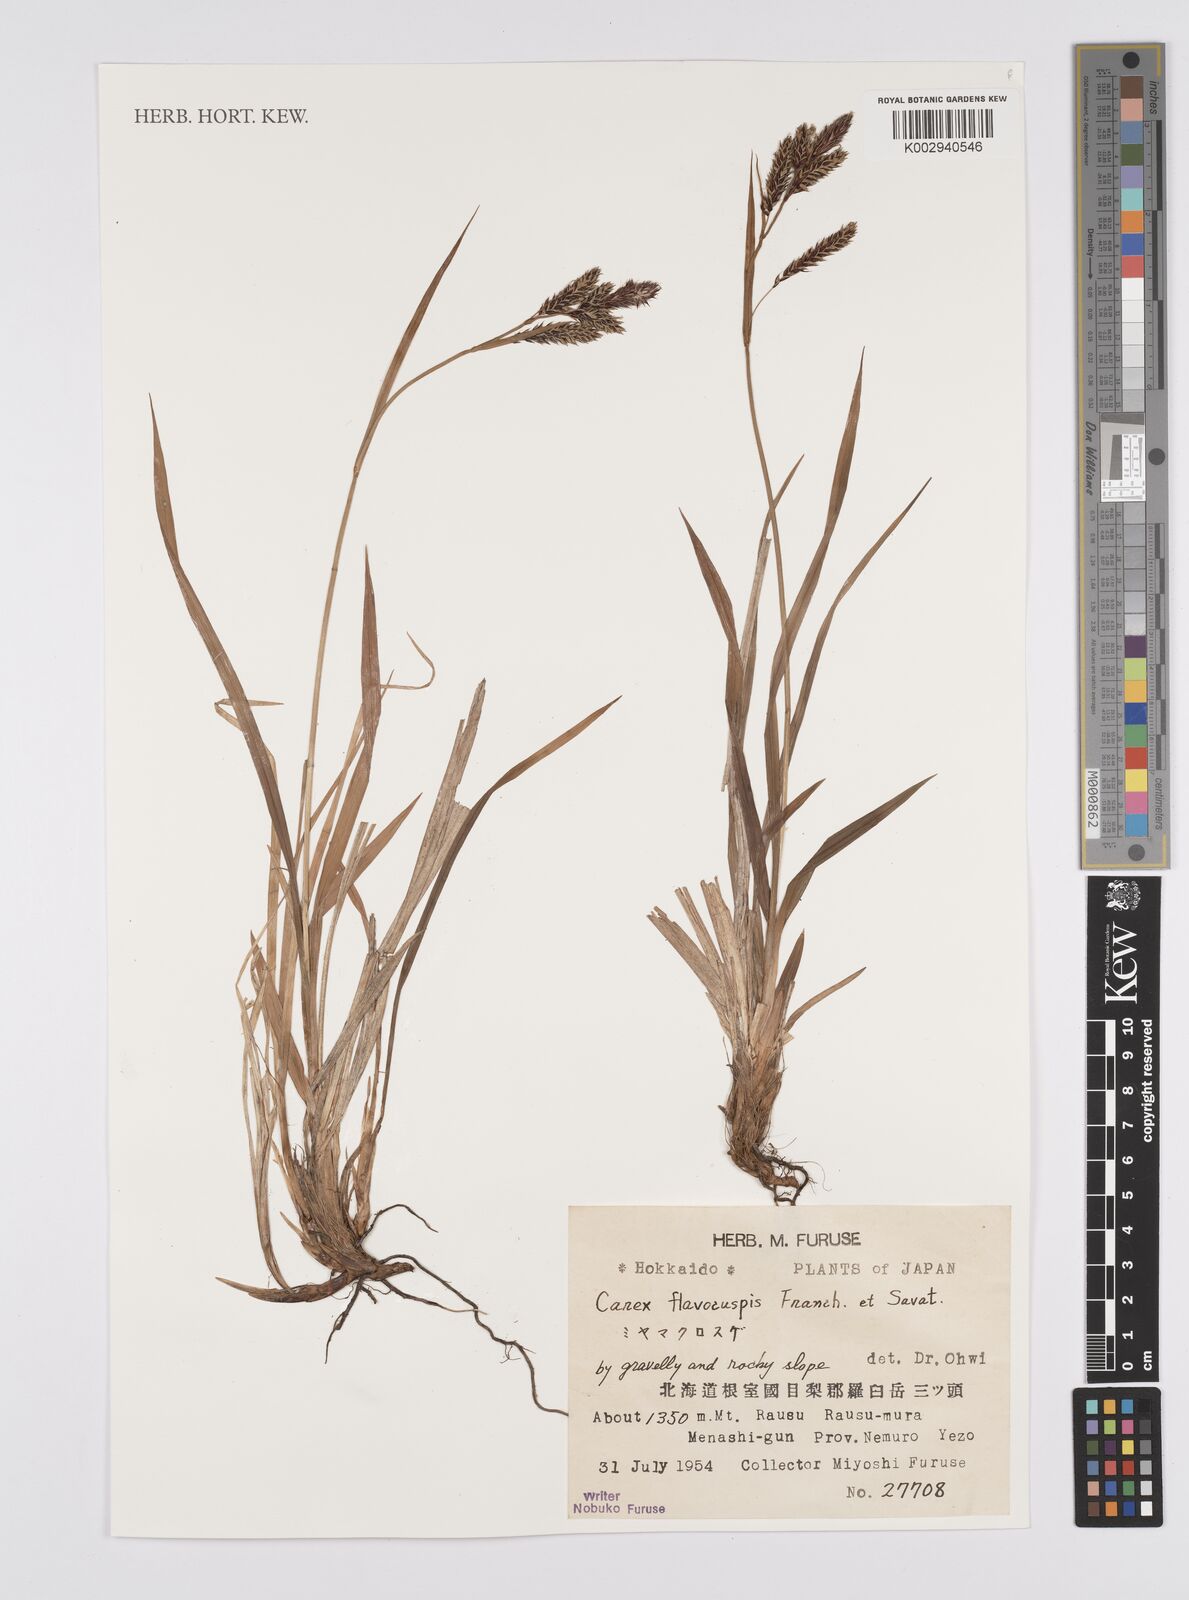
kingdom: Plantae
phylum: Tracheophyta
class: Liliopsida
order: Poales
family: Cyperaceae
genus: Carex
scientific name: Carex flavocuspis
